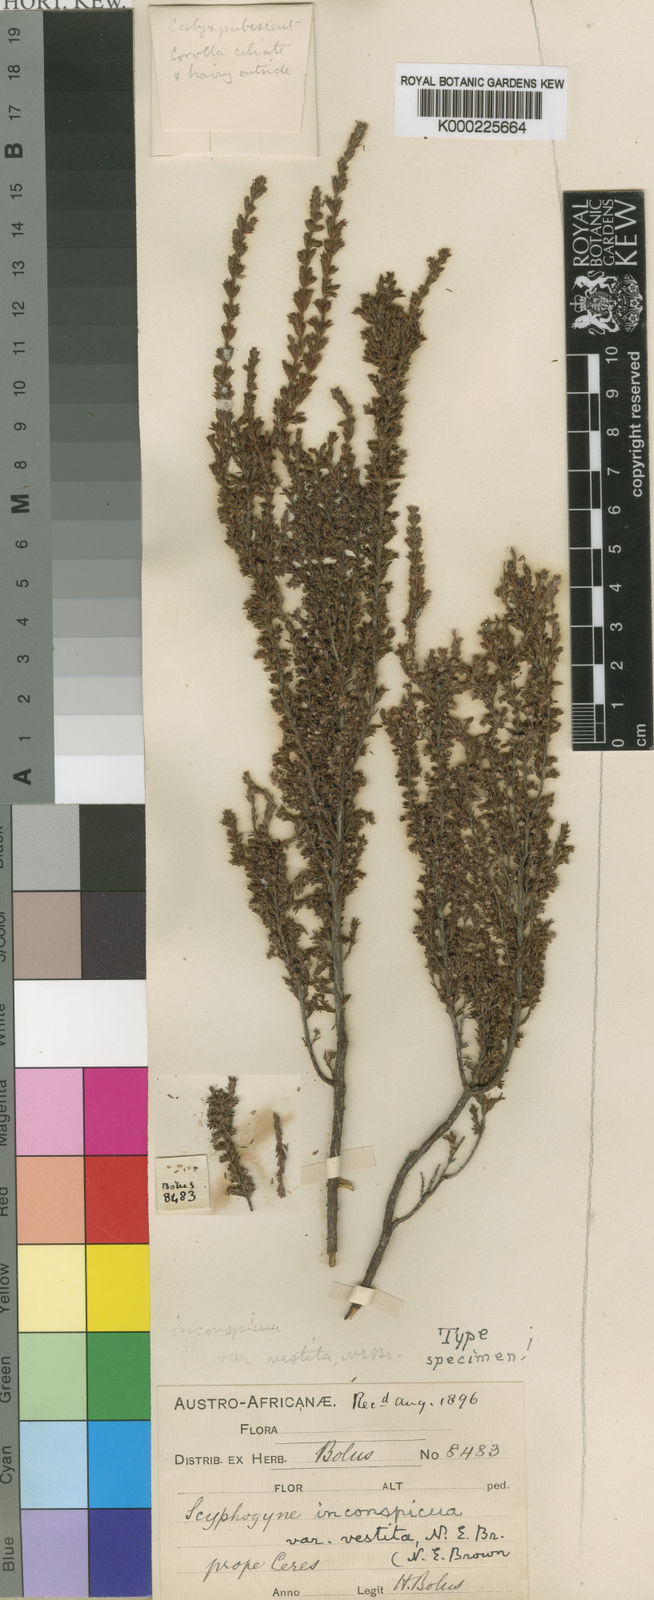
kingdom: Plantae
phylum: Tracheophyta
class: Magnoliopsida
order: Ericales
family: Ericaceae
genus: Scyphogyne
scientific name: Scyphogyne
